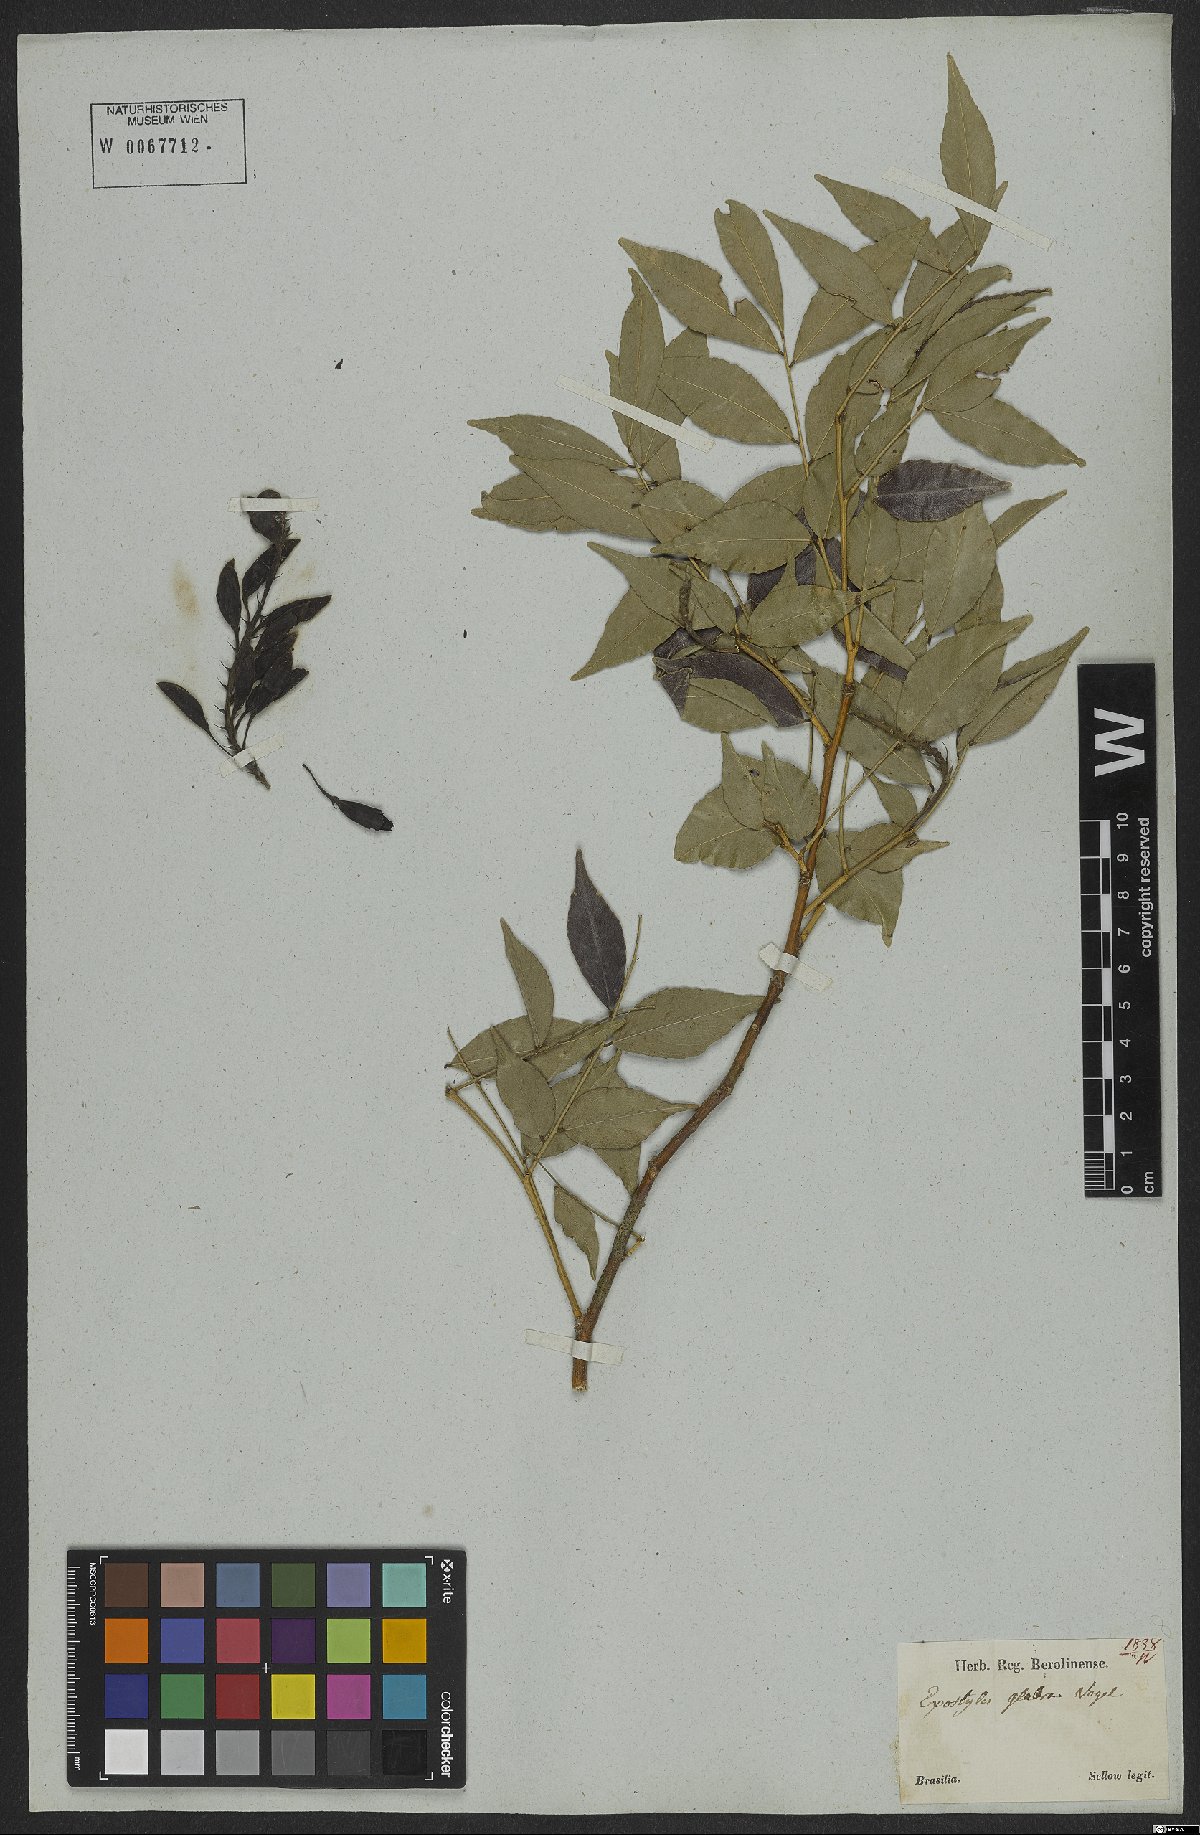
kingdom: Plantae
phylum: Tracheophyta
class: Magnoliopsida
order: Fabales
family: Fabaceae
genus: Exostyles
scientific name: Exostyles glabra
